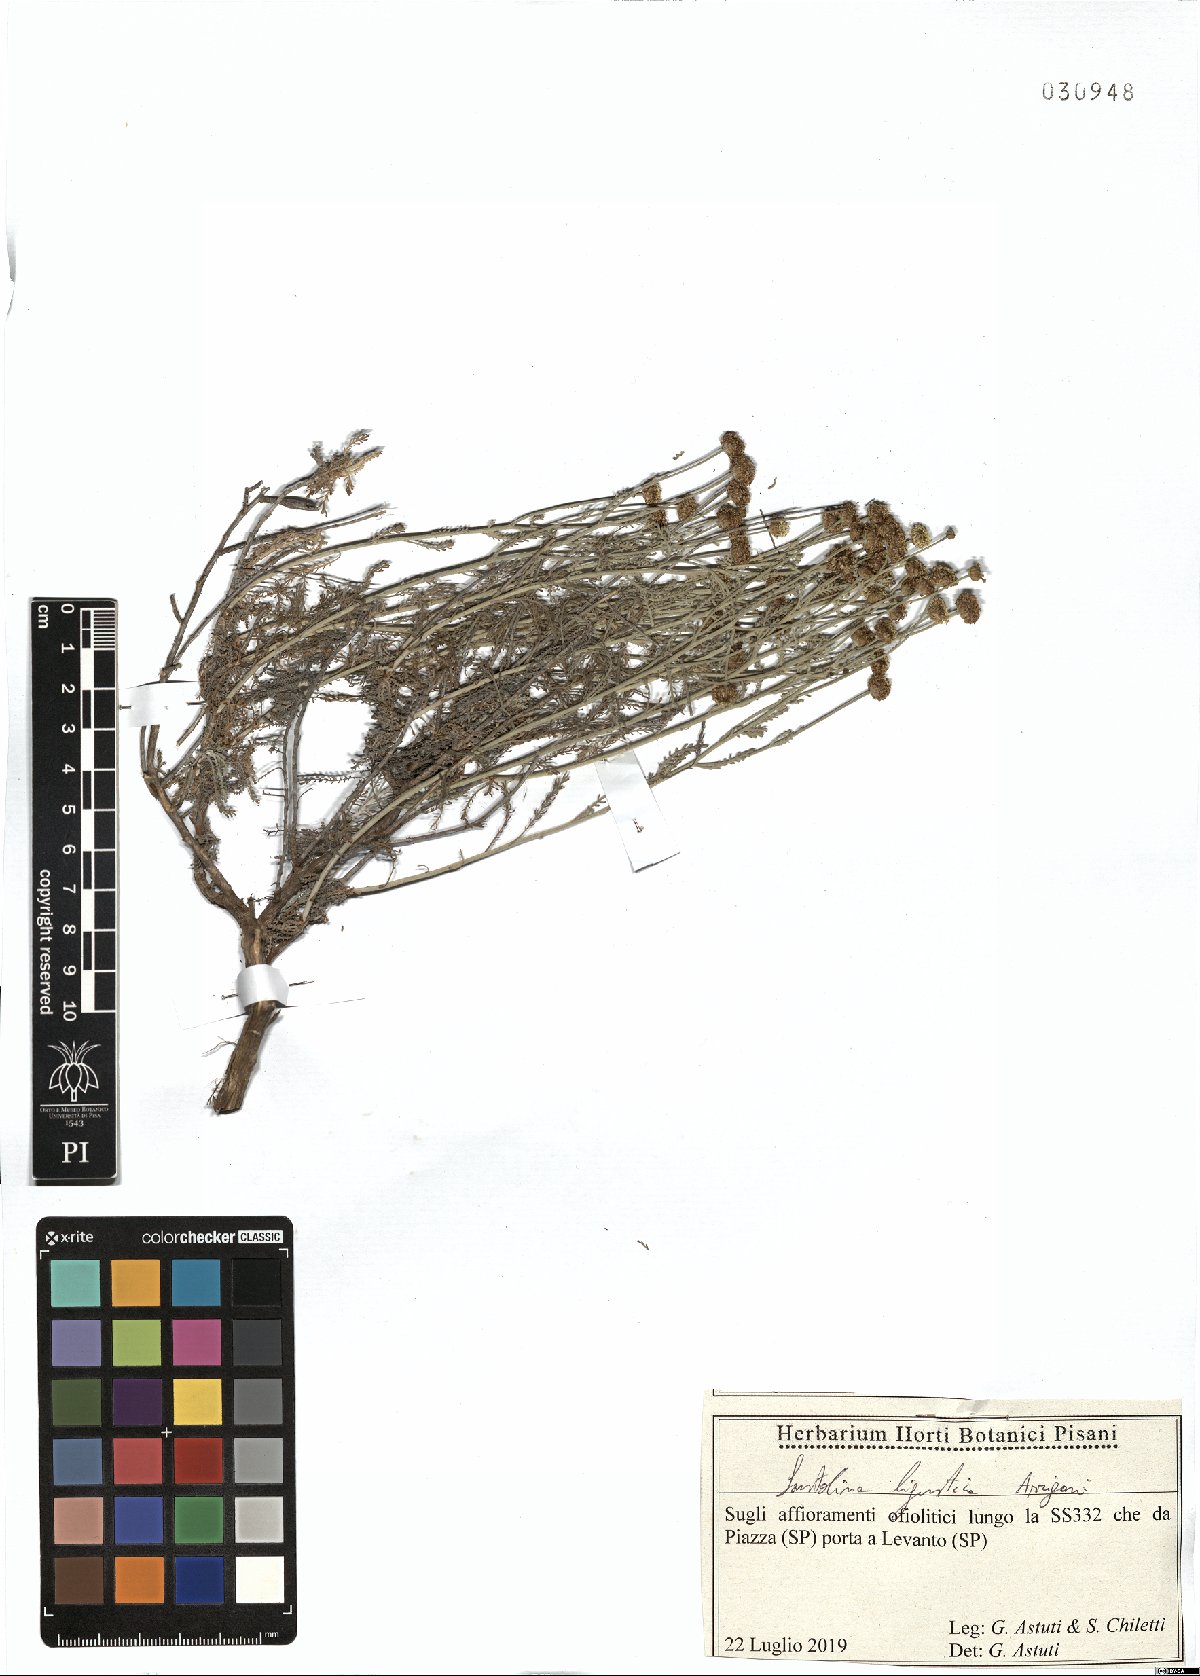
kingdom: Plantae
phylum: Tracheophyta
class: Magnoliopsida
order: Asterales
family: Asteraceae
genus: Santolina
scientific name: Santolina ligustica
